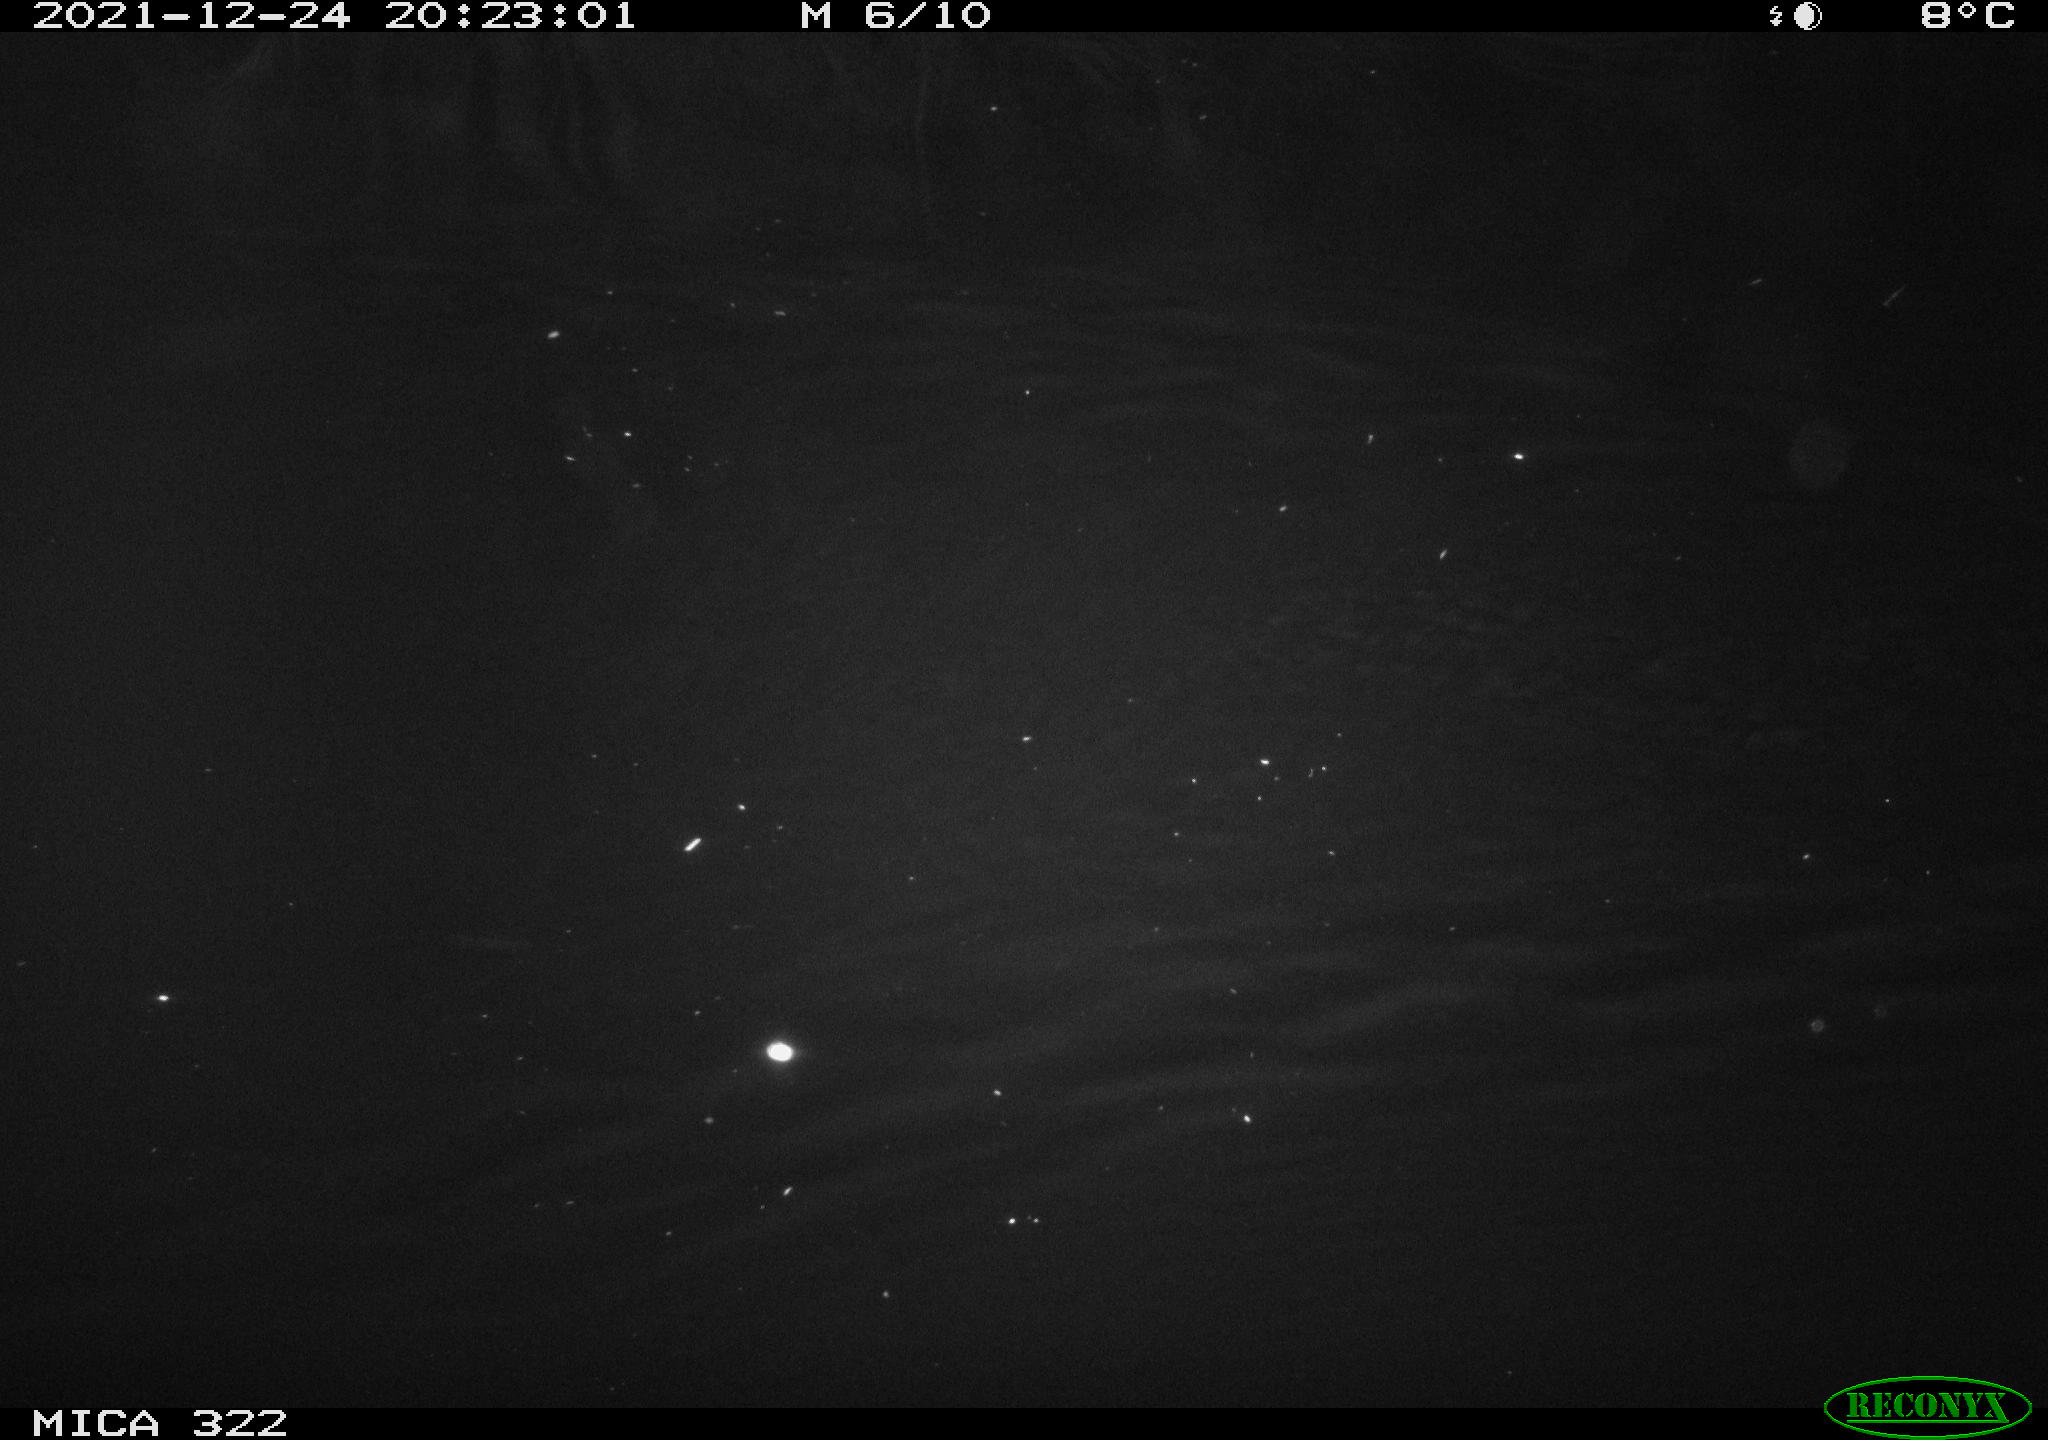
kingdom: Animalia
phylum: Chordata
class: Mammalia
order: Rodentia
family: Muridae
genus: Rattus
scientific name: Rattus norvegicus
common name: Brown rat
